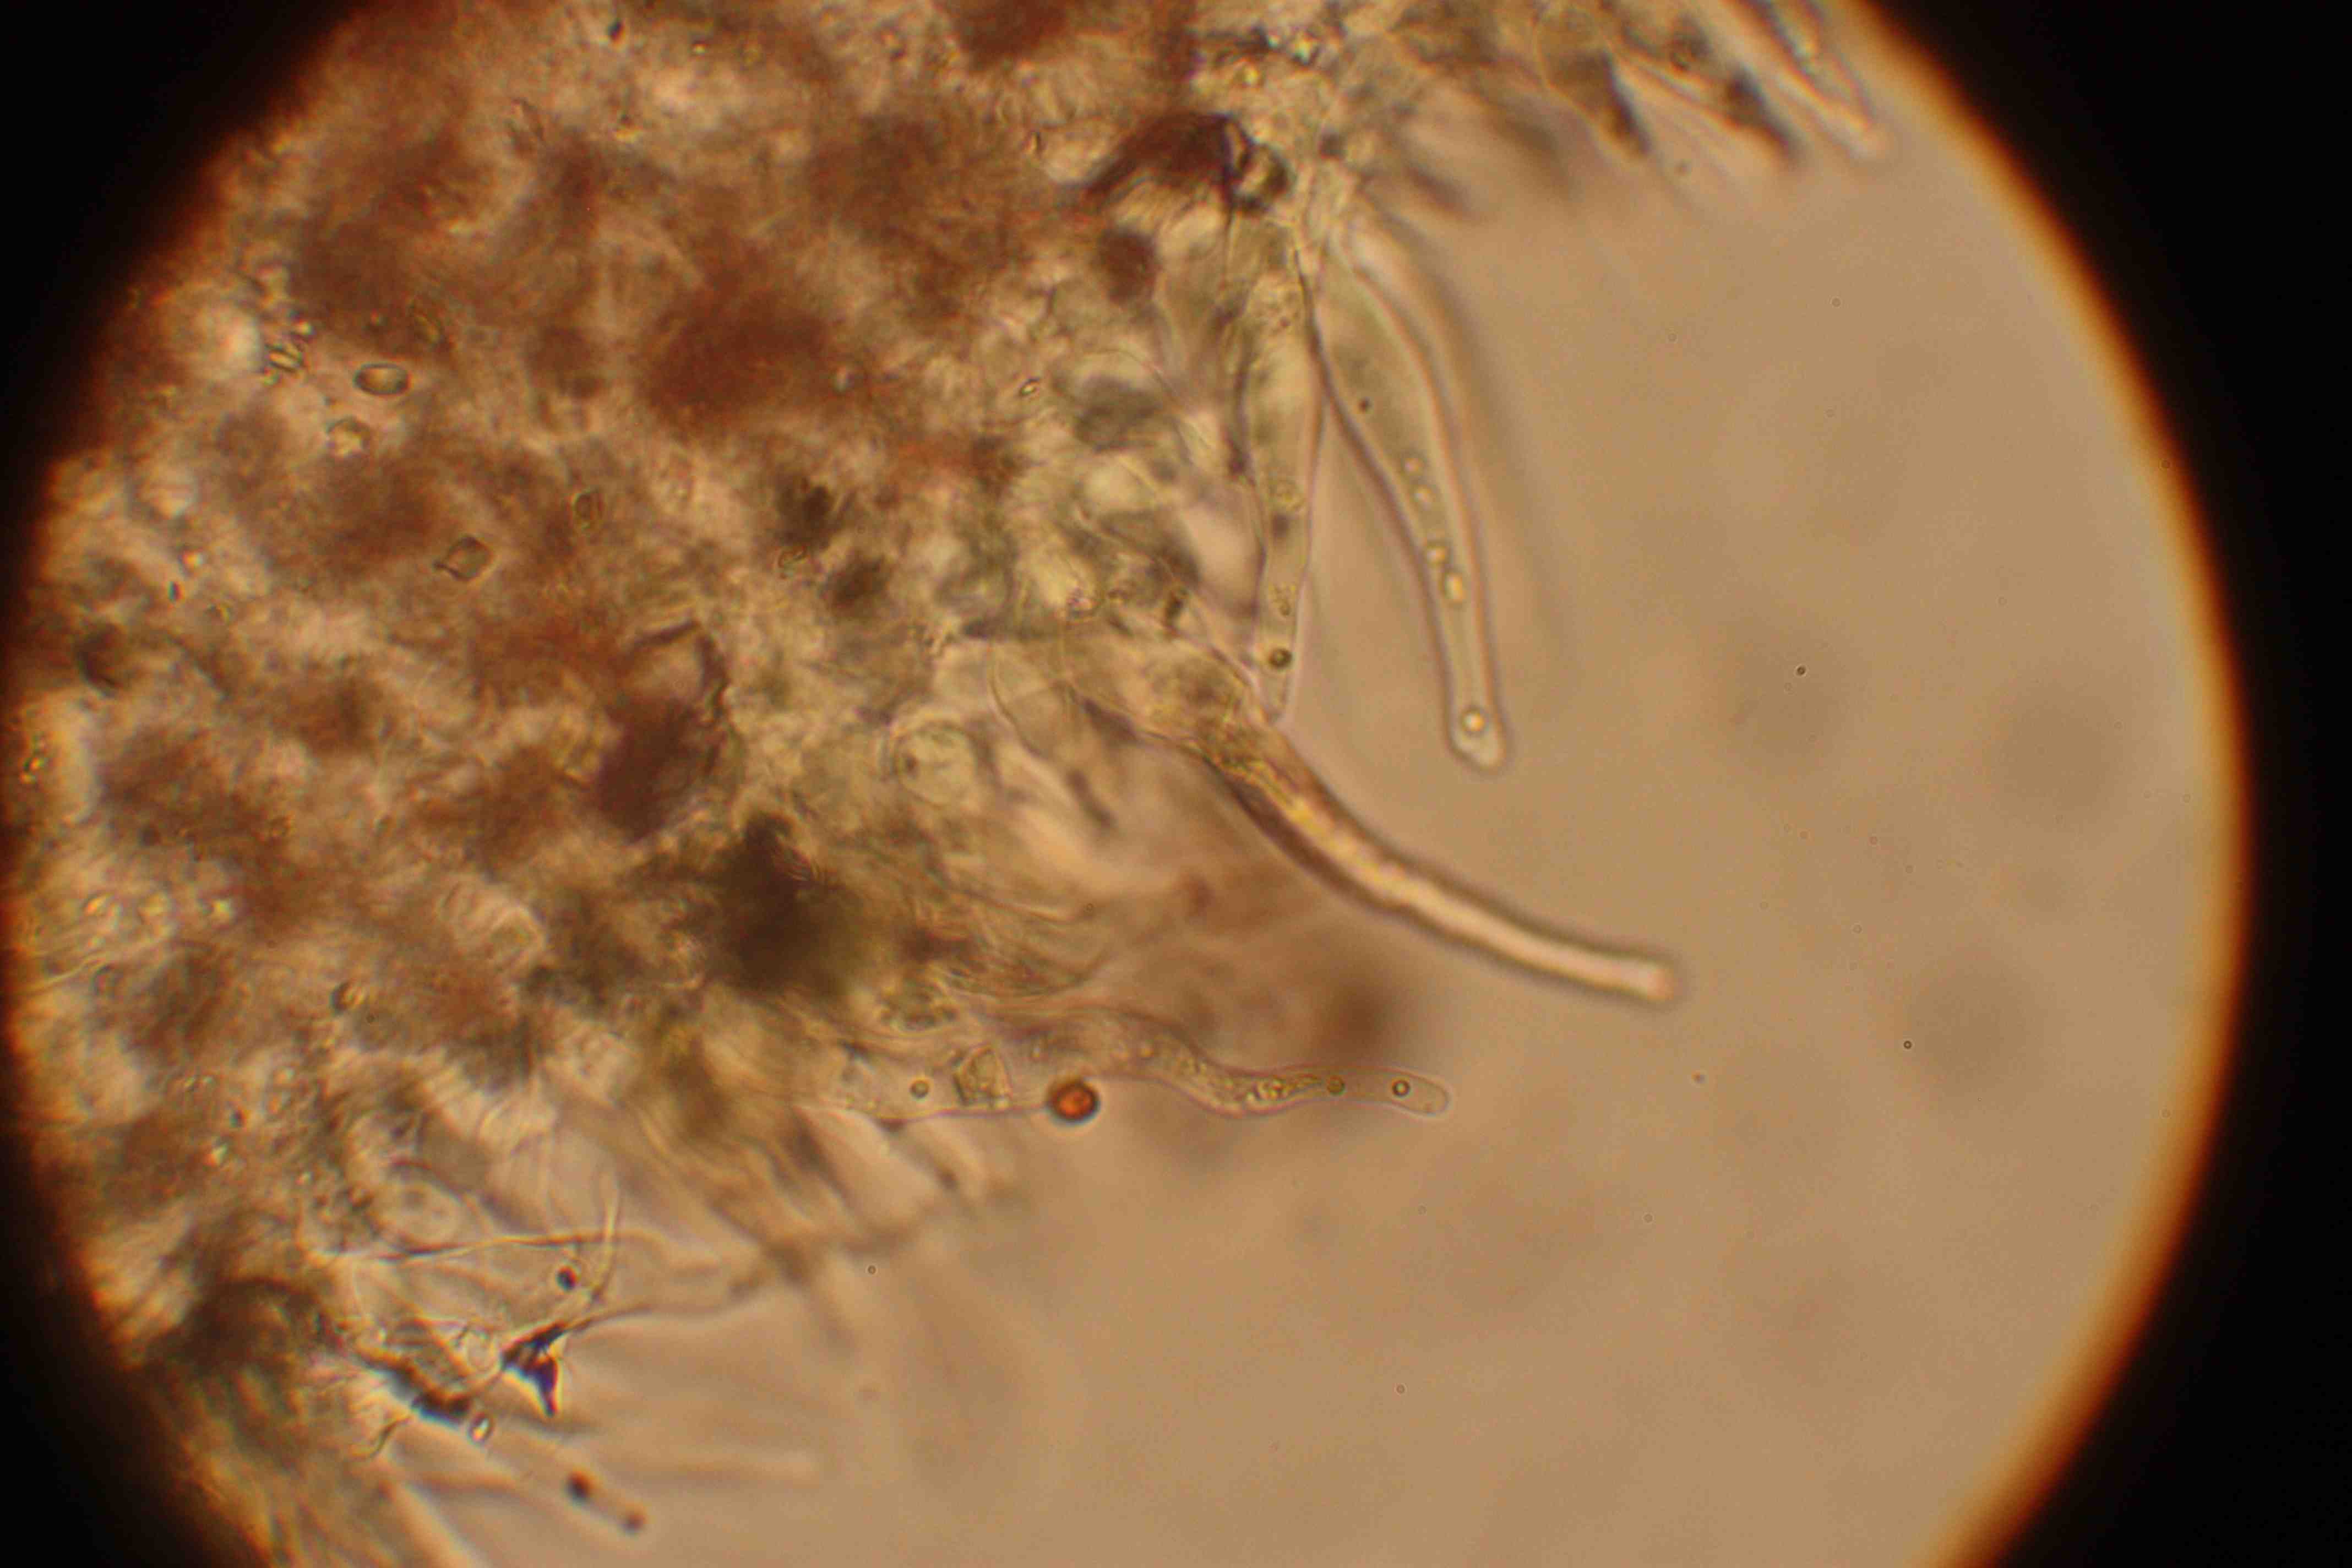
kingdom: Fungi
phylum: Basidiomycota
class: Agaricomycetes
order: Agaricales
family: Psathyrellaceae
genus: Britzelmayria
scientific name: Britzelmayria multipedata
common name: knippe-mørkhat
